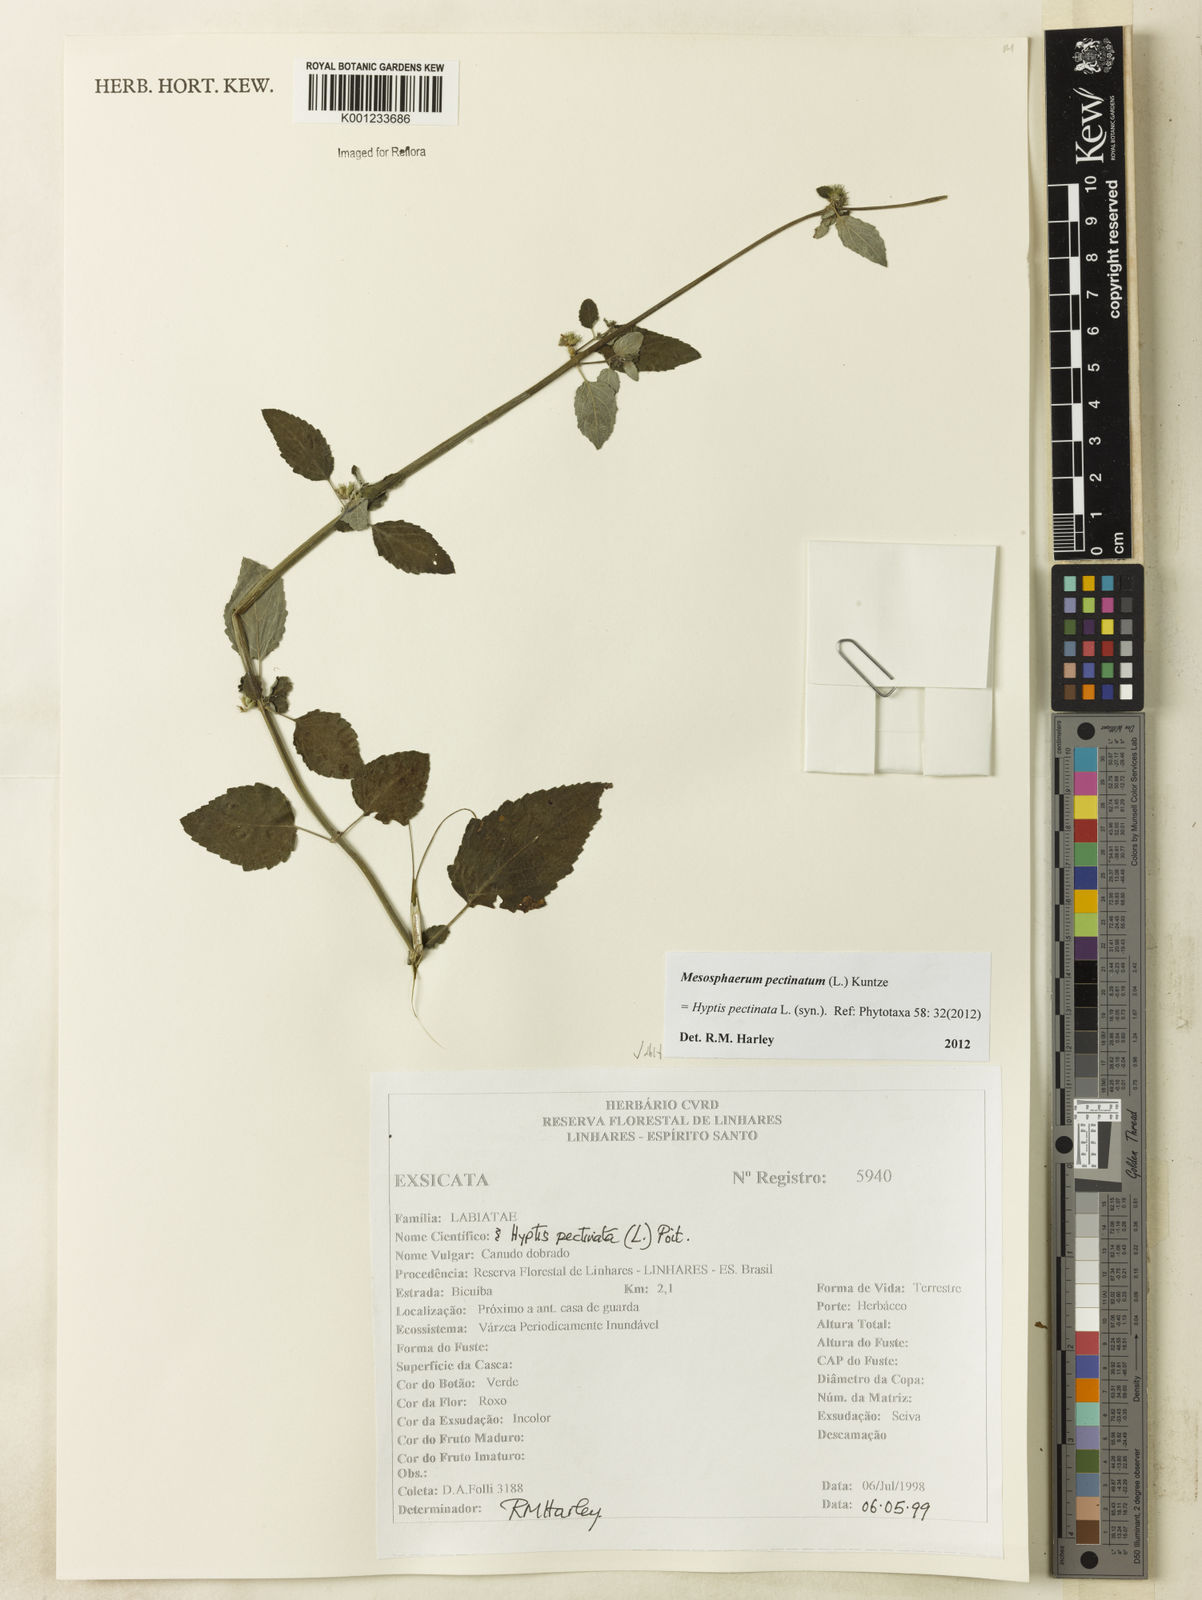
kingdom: Plantae
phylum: Tracheophyta
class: Magnoliopsida
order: Lamiales
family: Lamiaceae
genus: Mesosphaerum
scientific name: Mesosphaerum pectinatum
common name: Comb hyptis
